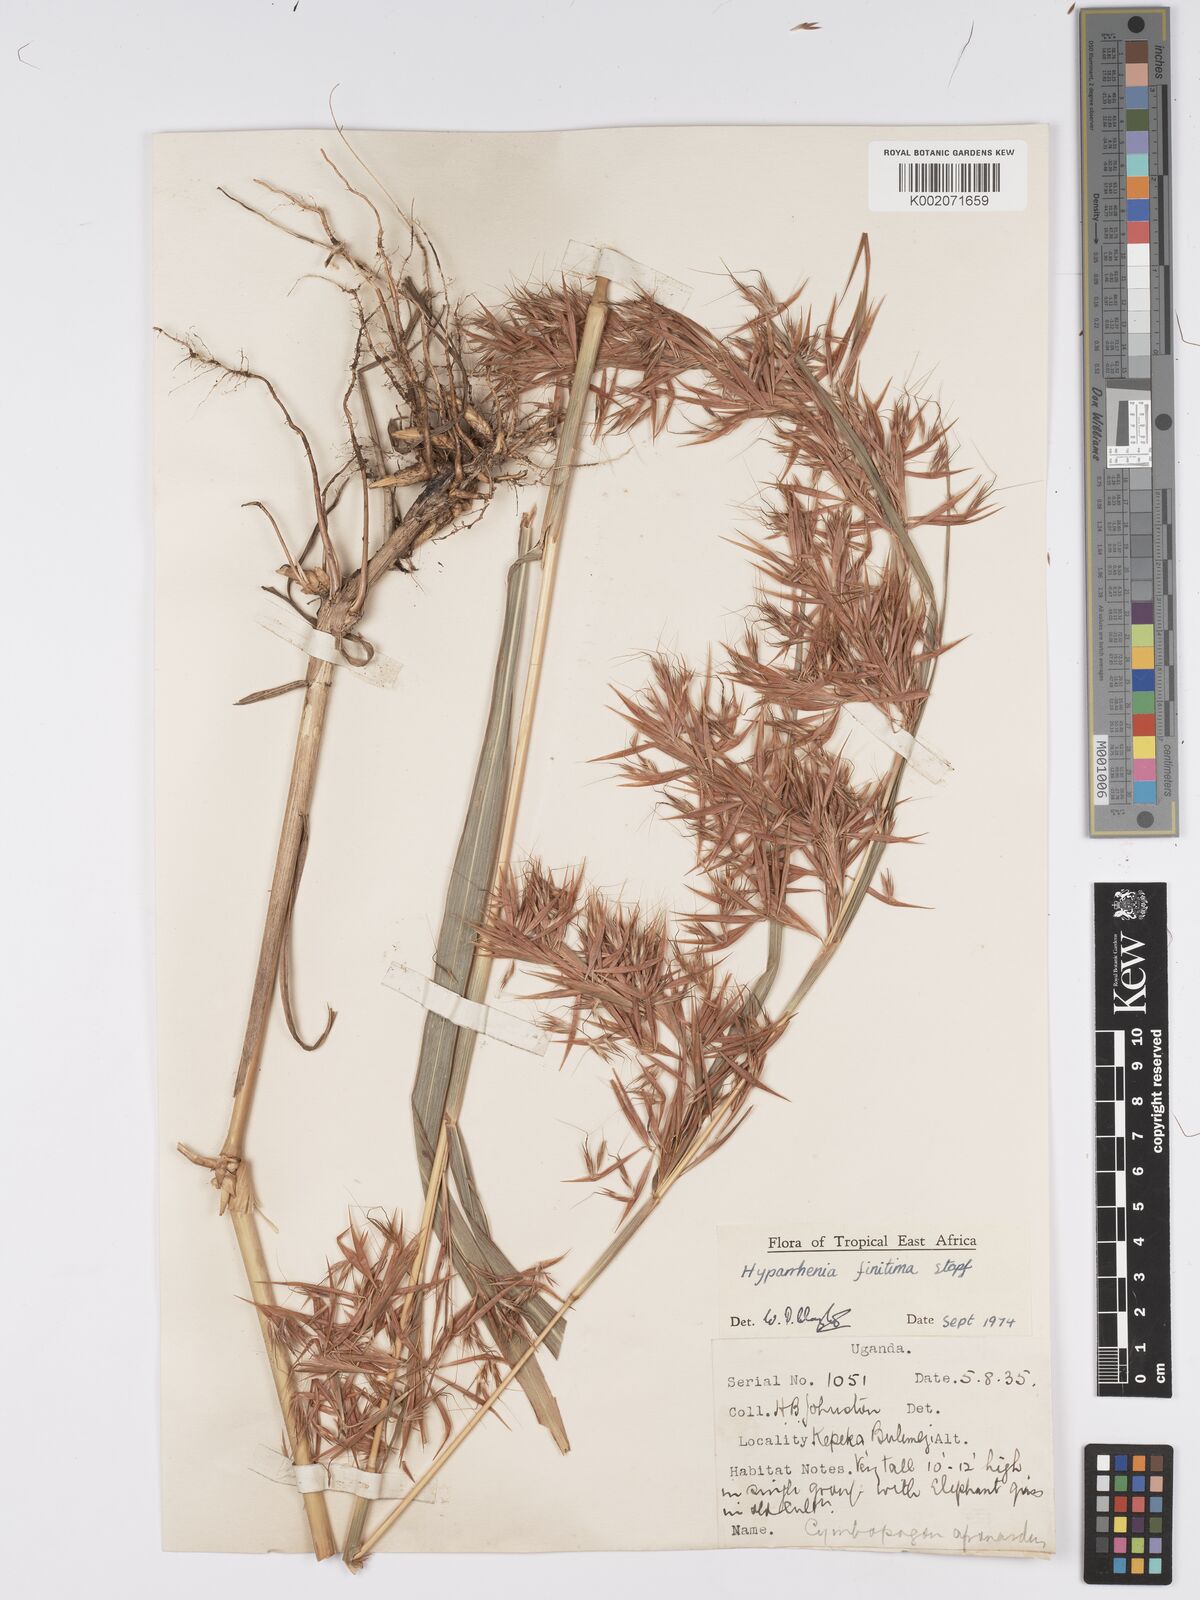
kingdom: Plantae
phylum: Tracheophyta
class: Liliopsida
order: Poales
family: Poaceae
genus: Hyparrhenia
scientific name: Hyparrhenia finitima
